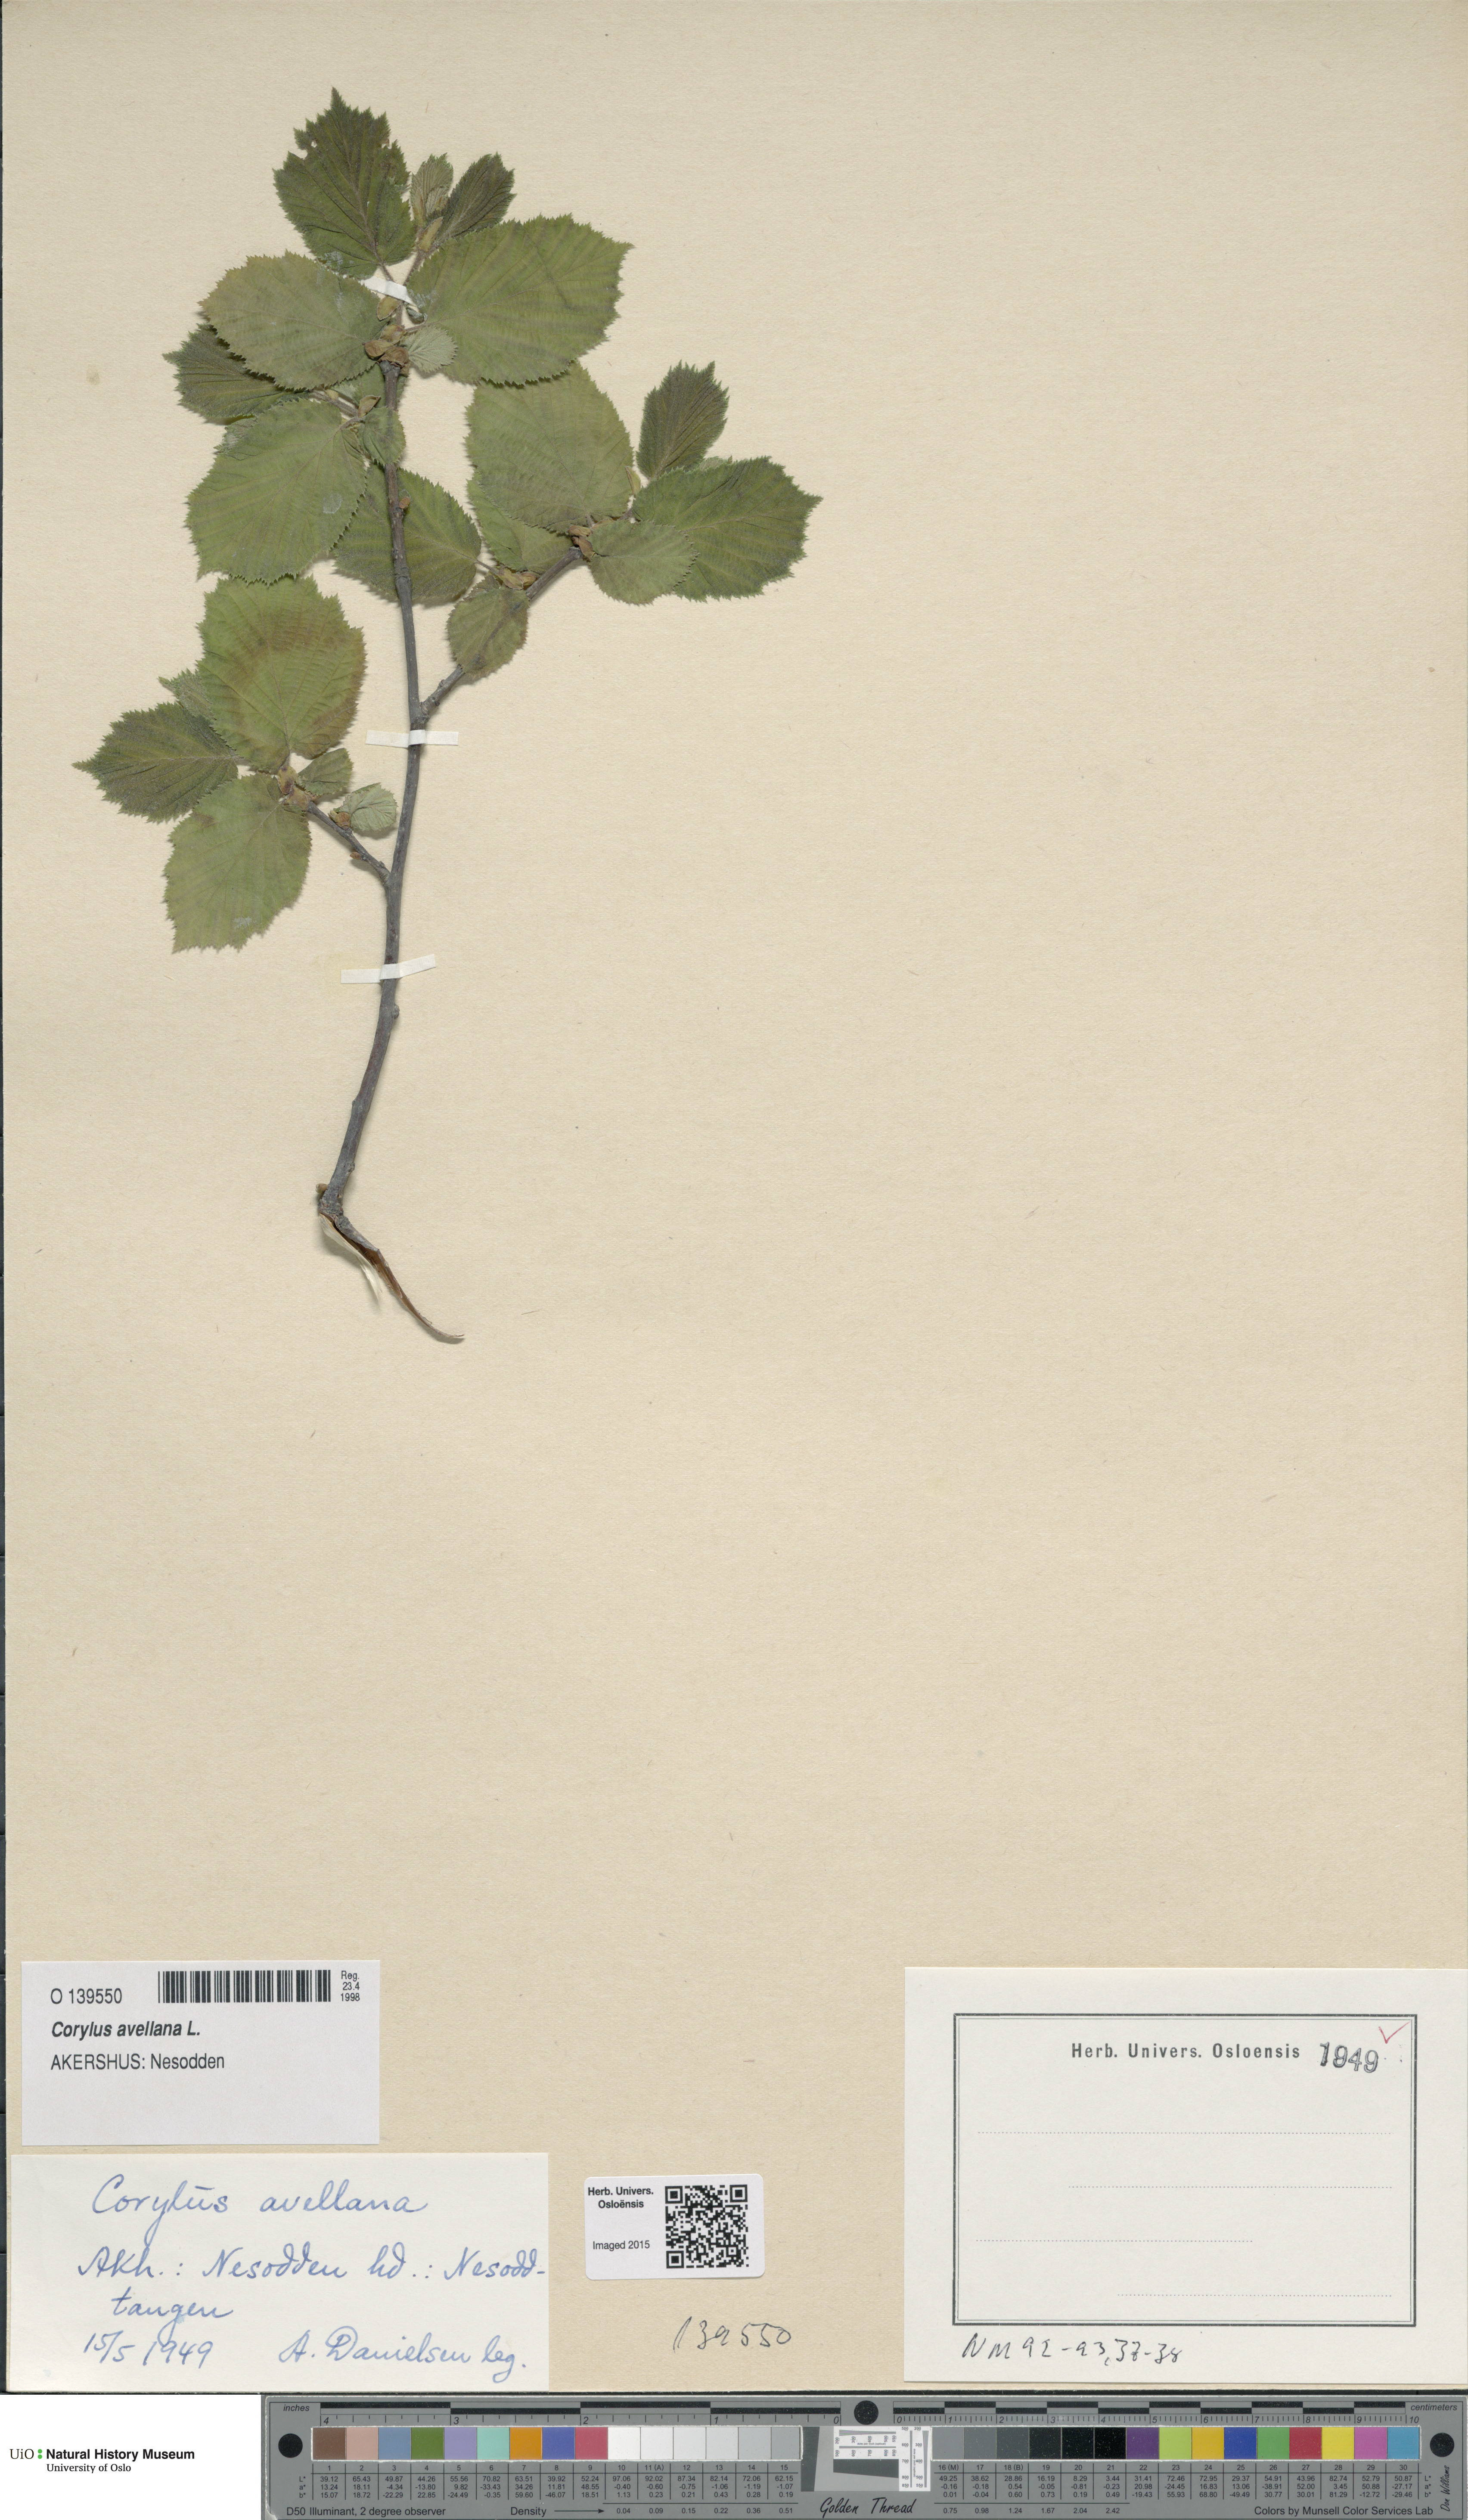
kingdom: Plantae
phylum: Tracheophyta
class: Magnoliopsida
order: Fagales
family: Betulaceae
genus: Corylus
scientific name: Corylus avellana
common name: European hazel
